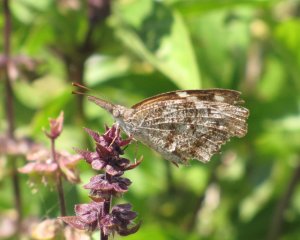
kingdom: Animalia
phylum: Arthropoda
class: Insecta
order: Lepidoptera
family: Nymphalidae
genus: Libytheana
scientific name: Libytheana carinenta
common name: American Snout
